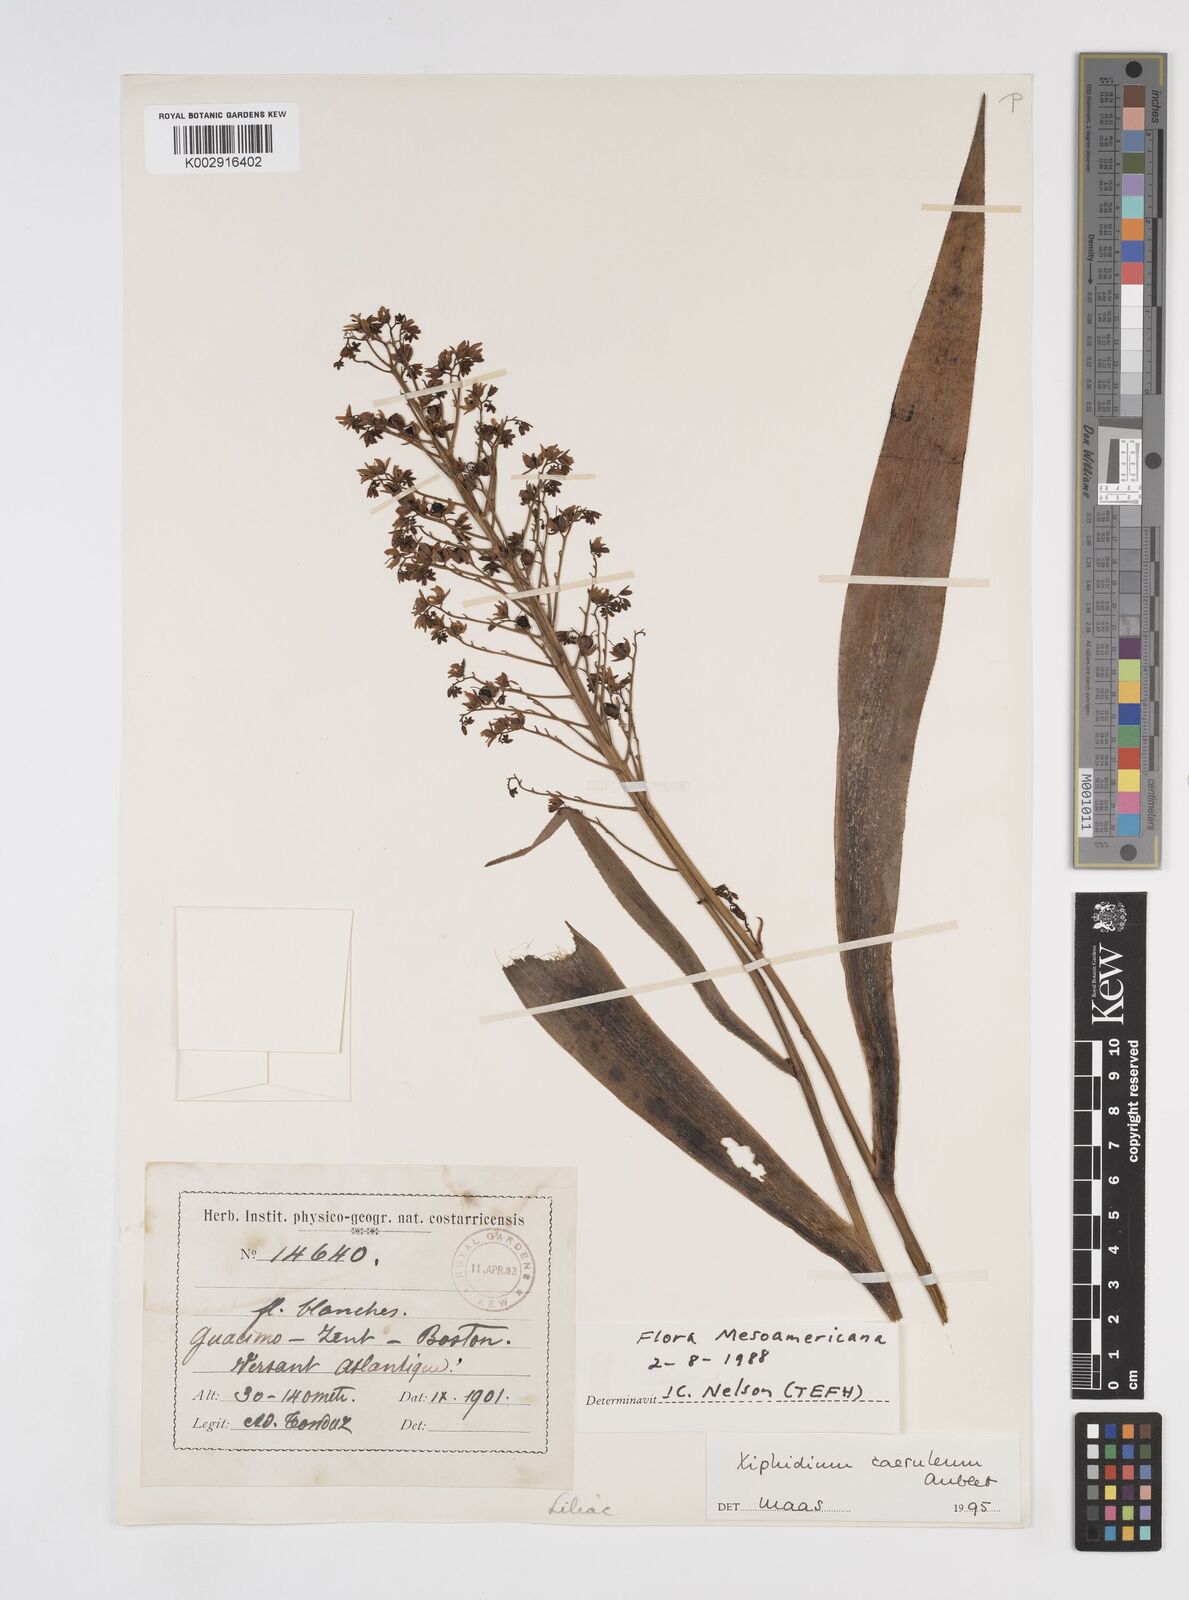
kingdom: Plantae
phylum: Tracheophyta
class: Liliopsida
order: Commelinales
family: Haemodoraceae
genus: Xiphidium
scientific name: Xiphidium caeruleum
